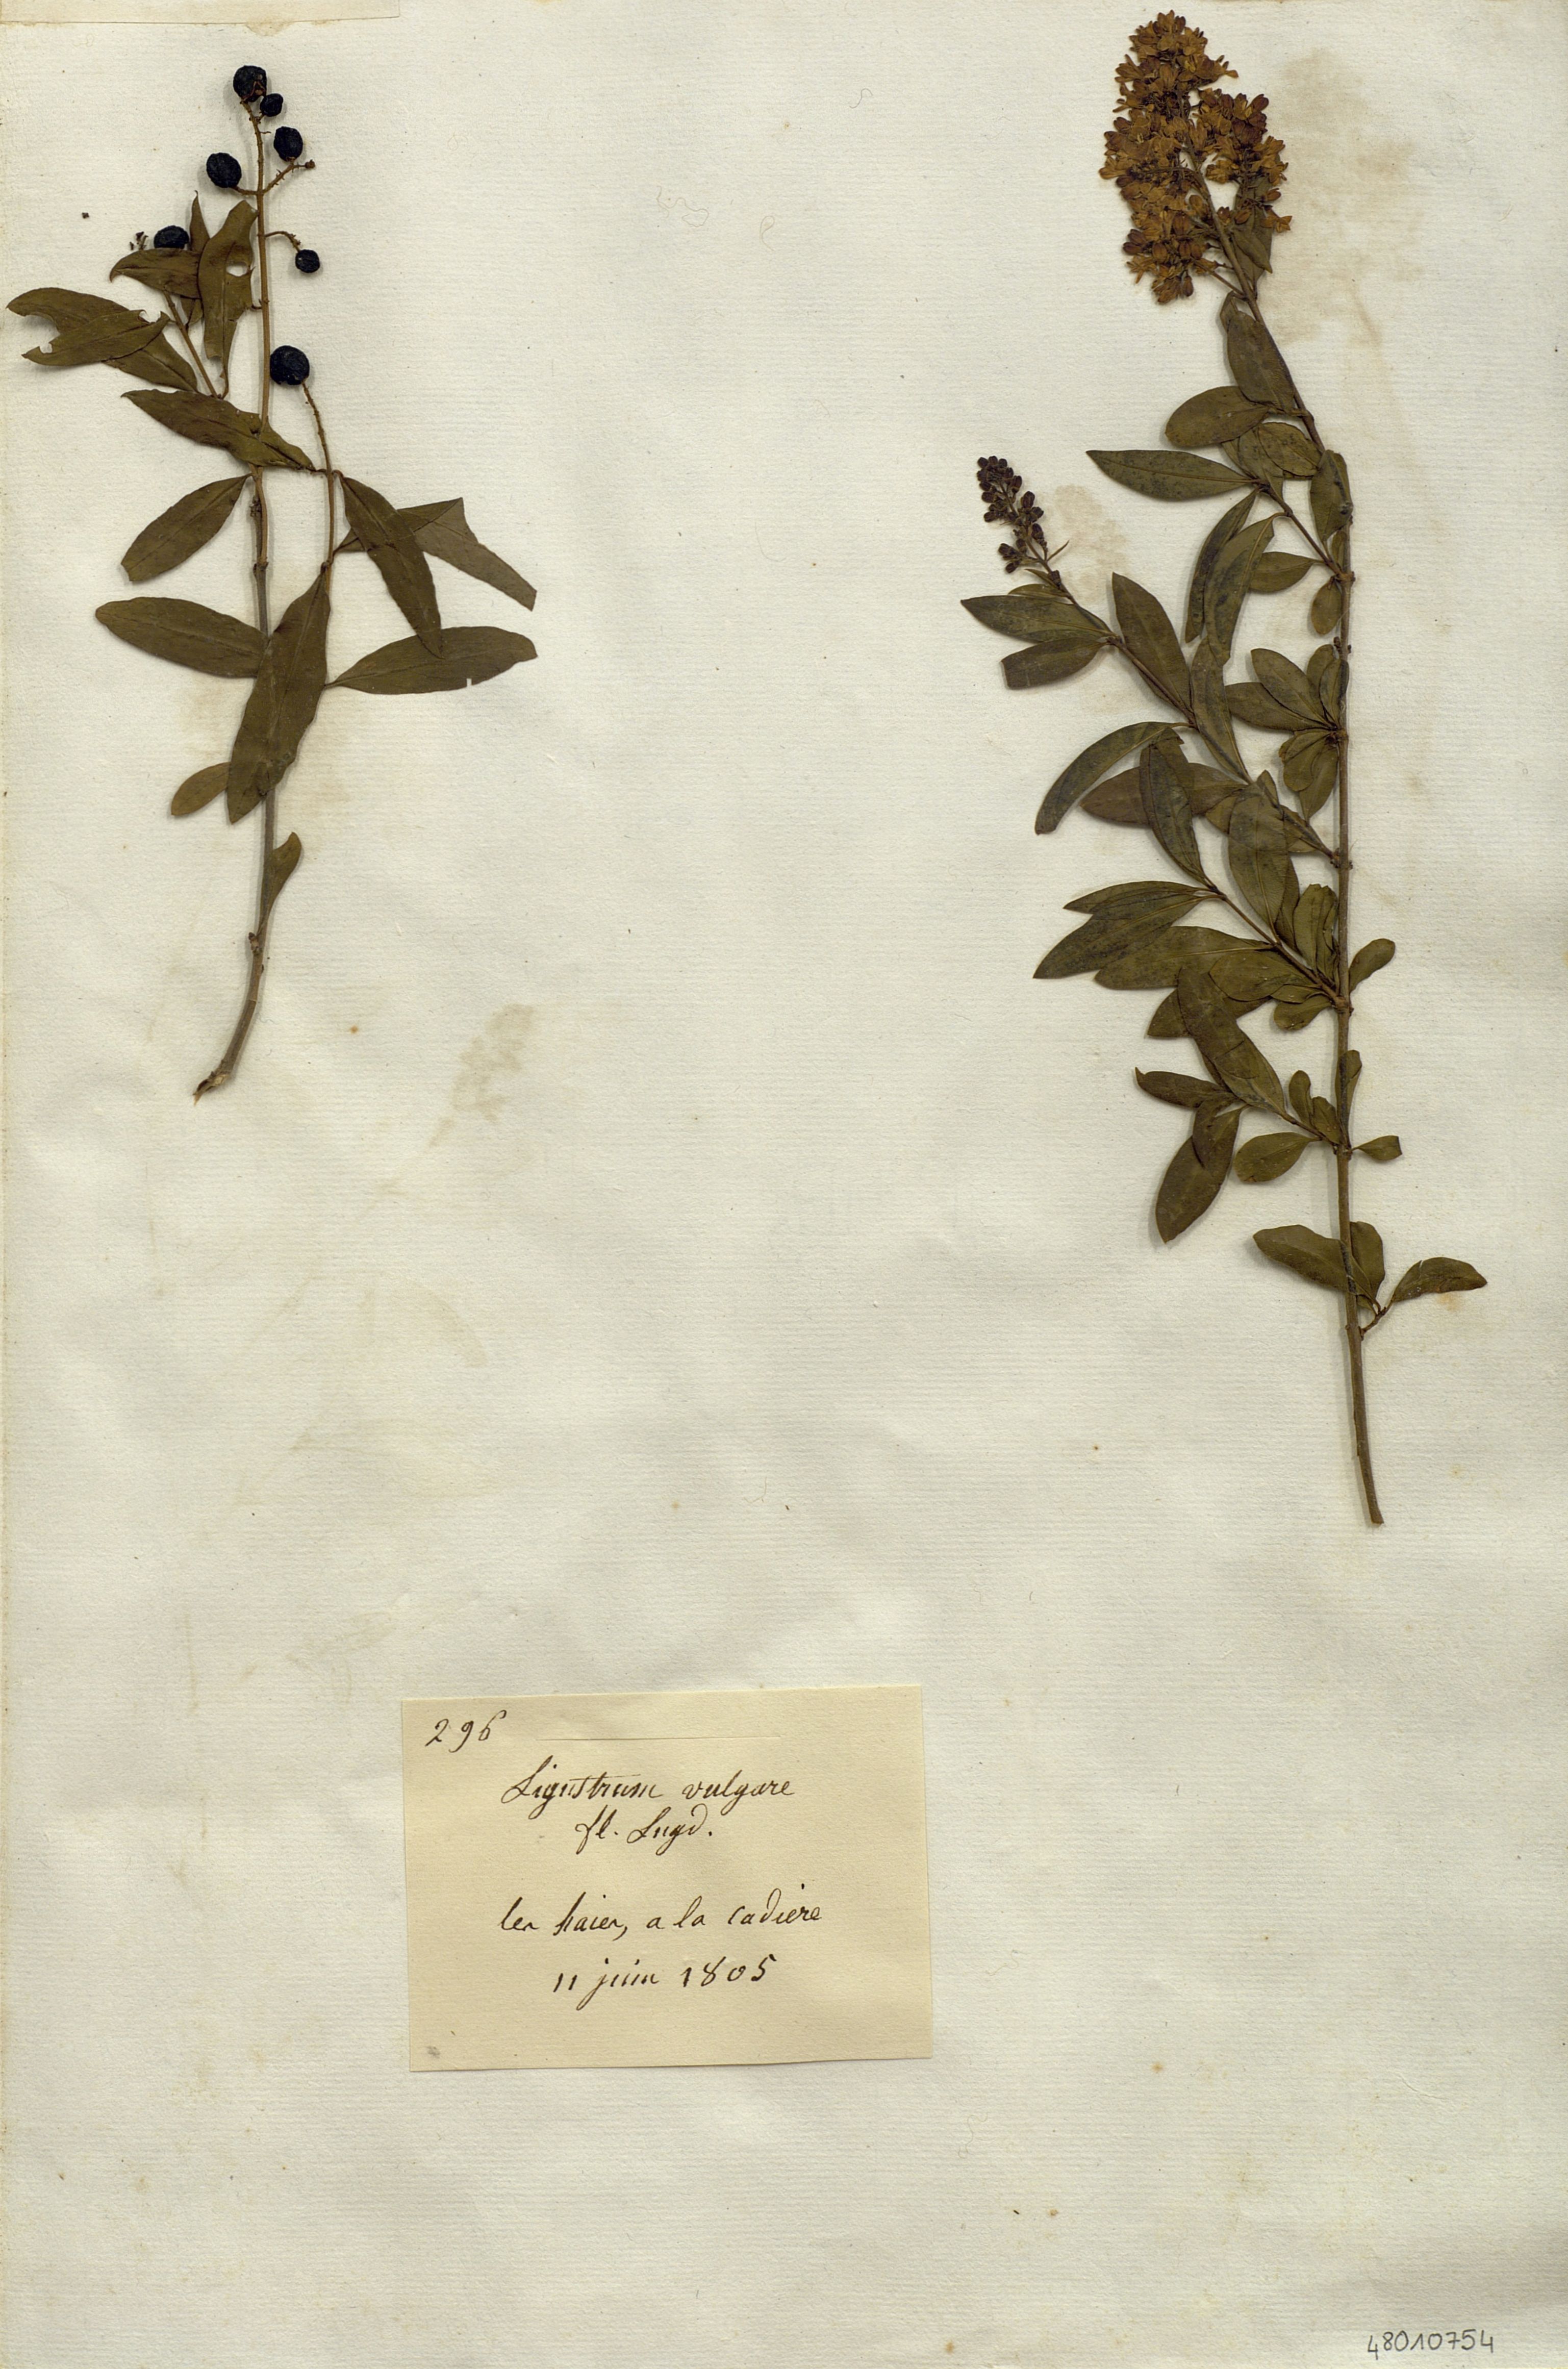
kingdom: Plantae
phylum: Tracheophyta
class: Magnoliopsida
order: Lamiales
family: Oleaceae
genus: Ligustrum
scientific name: Ligustrum vulgare
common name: Wild privet
